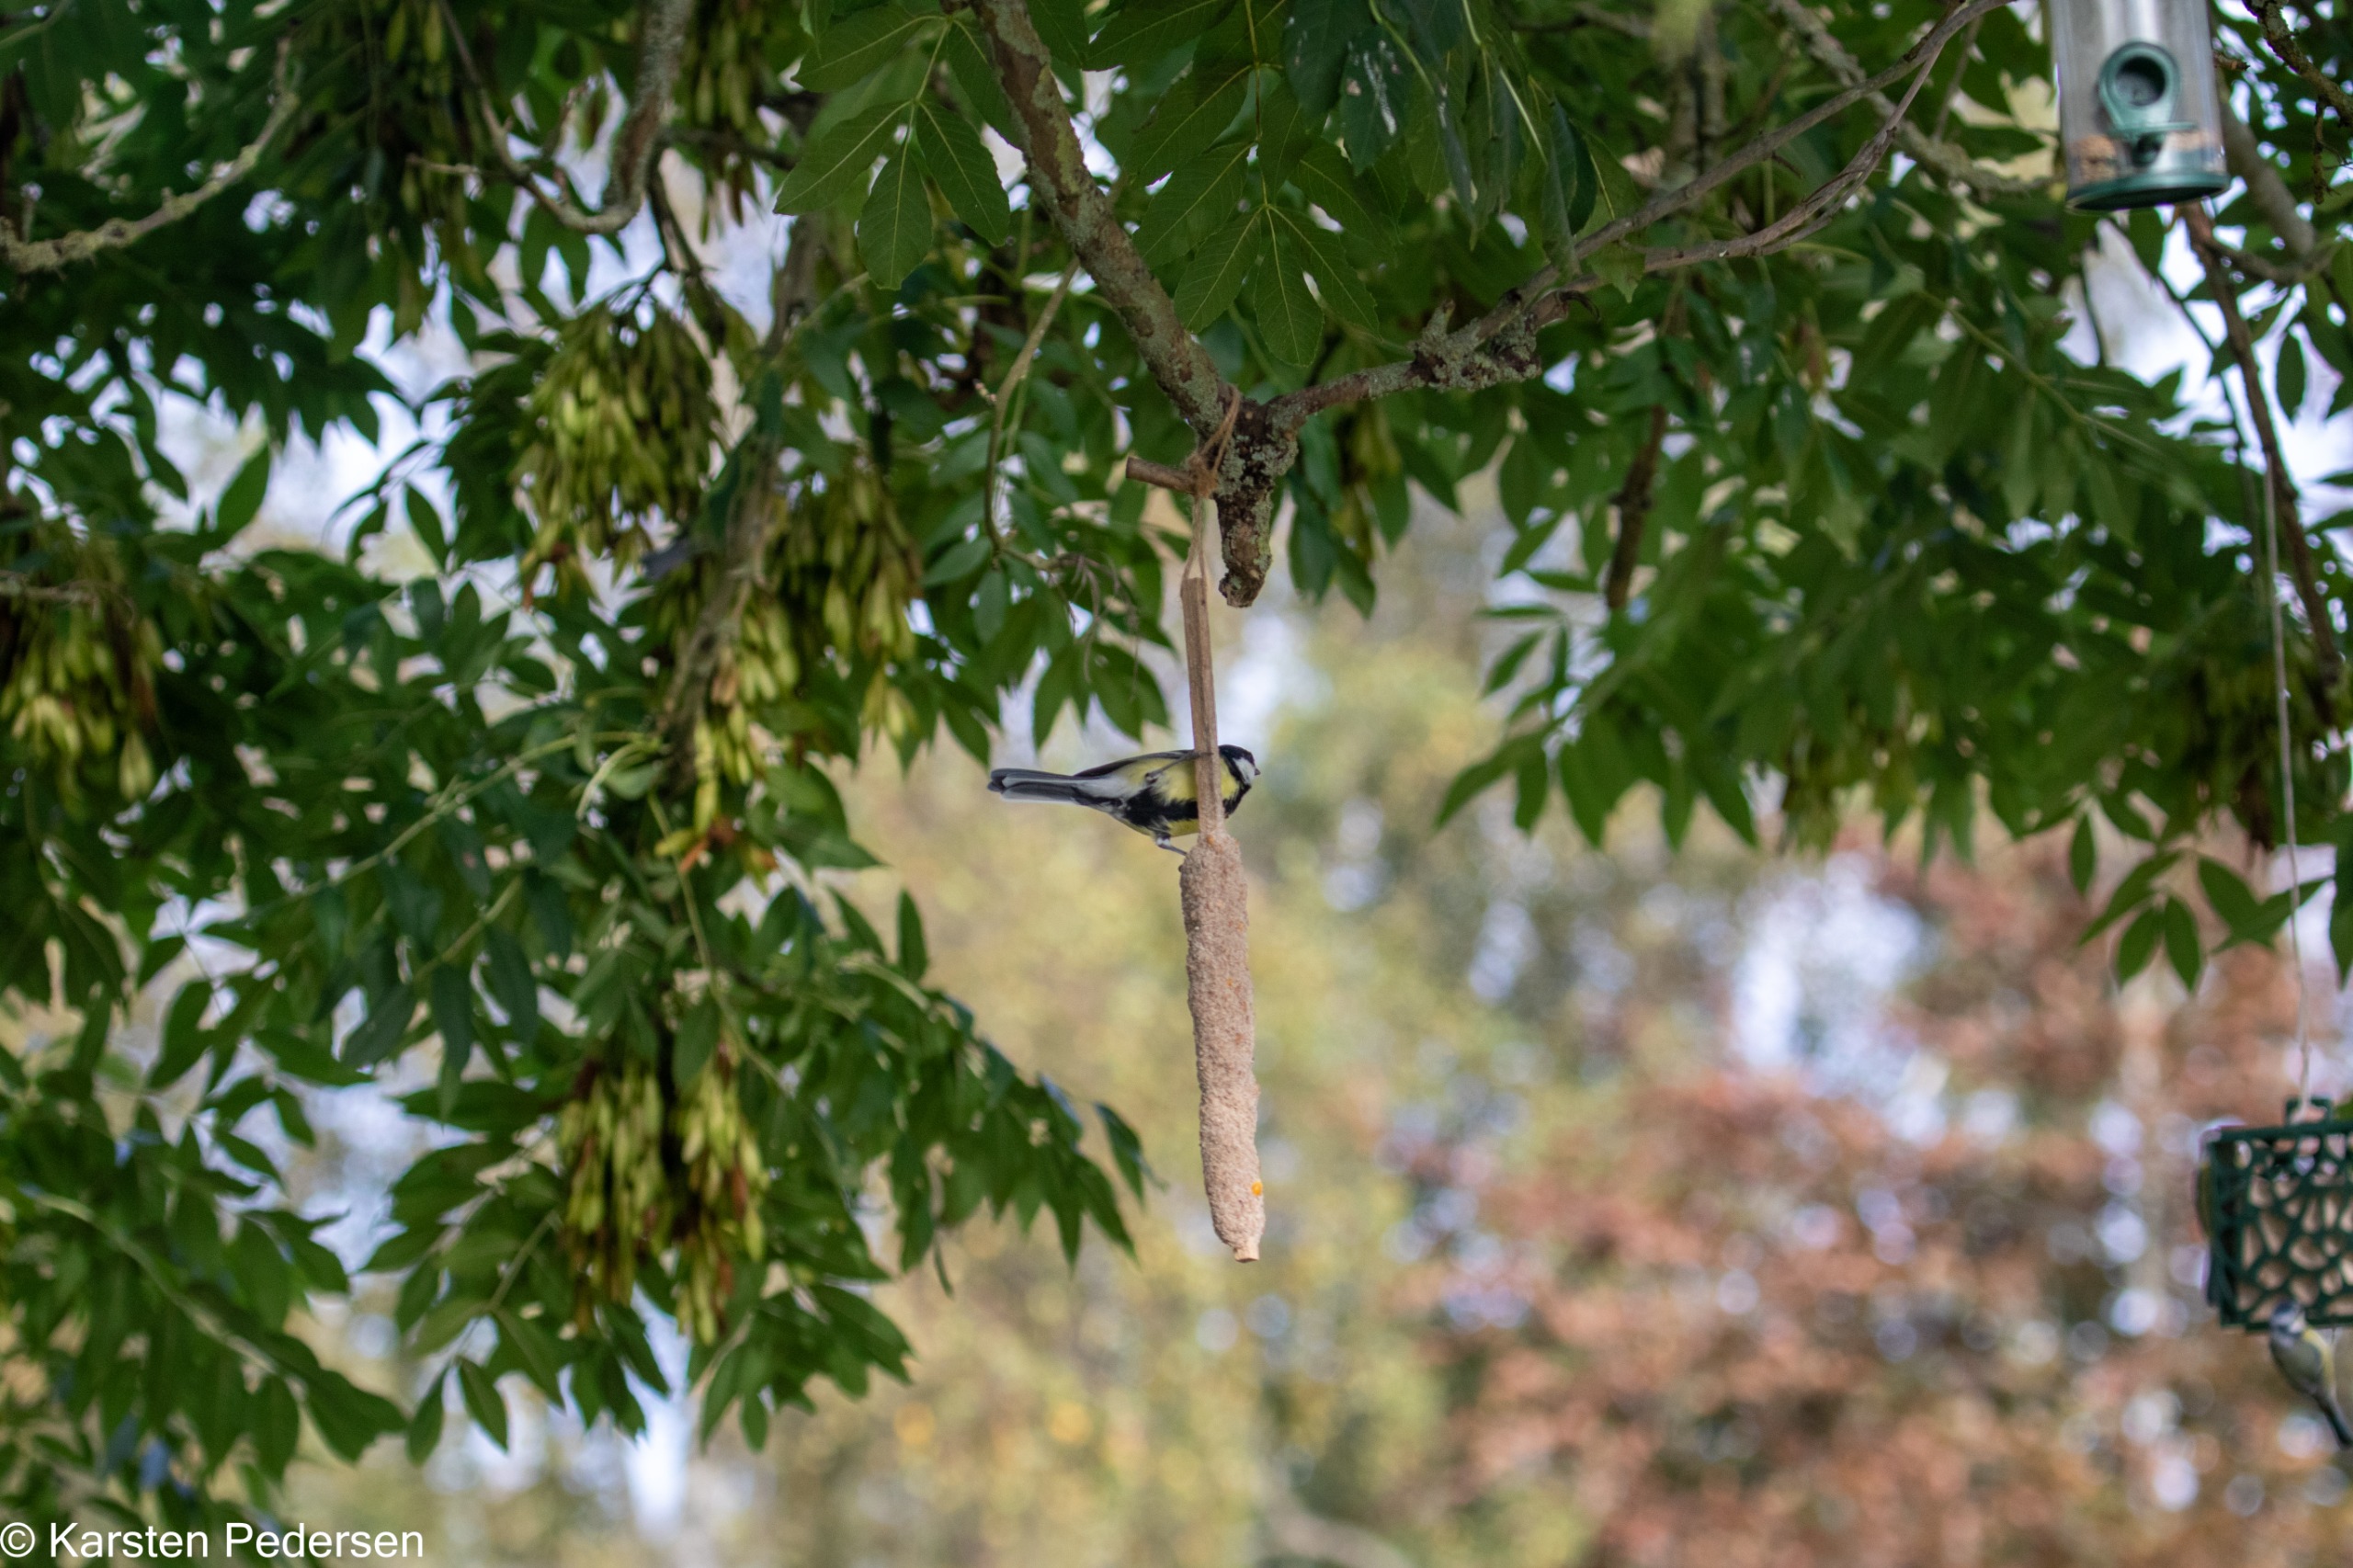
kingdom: Animalia
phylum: Chordata
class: Aves
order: Passeriformes
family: Paridae
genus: Parus
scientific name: Parus major
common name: Musvit
